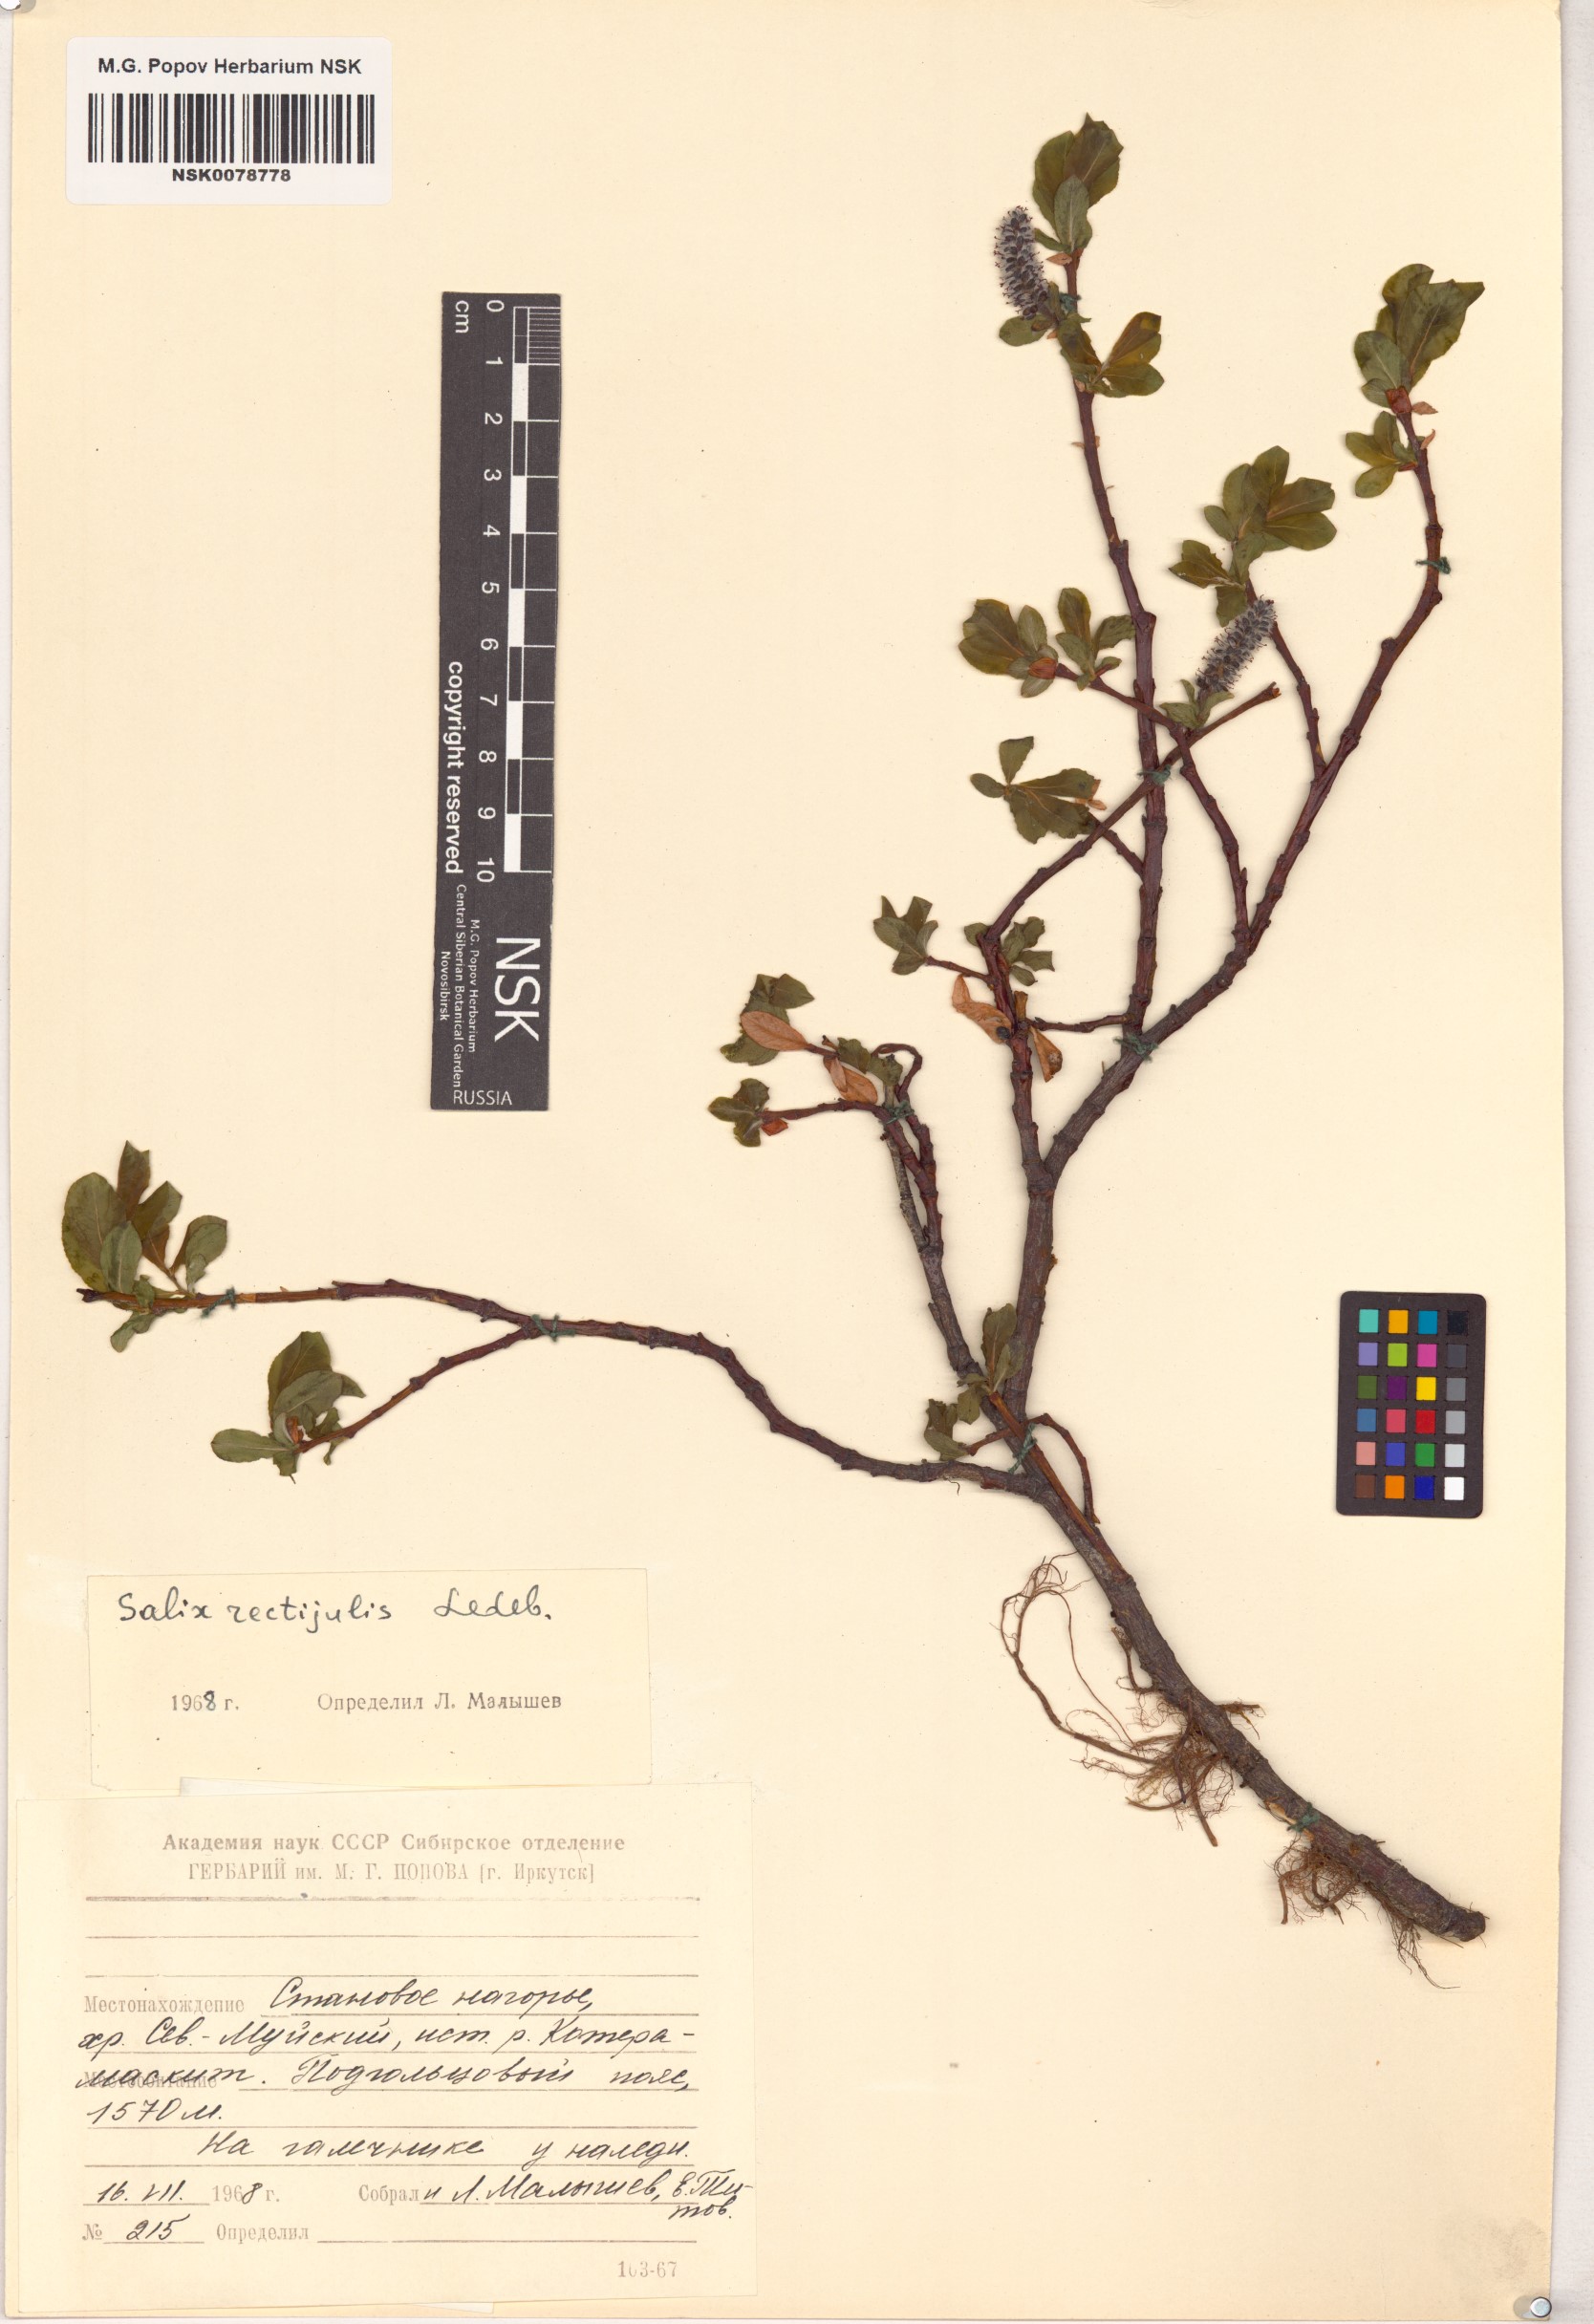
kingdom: Plantae
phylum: Tracheophyta
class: Magnoliopsida
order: Malpighiales
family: Salicaceae
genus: Salix
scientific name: Salix rectijulis
